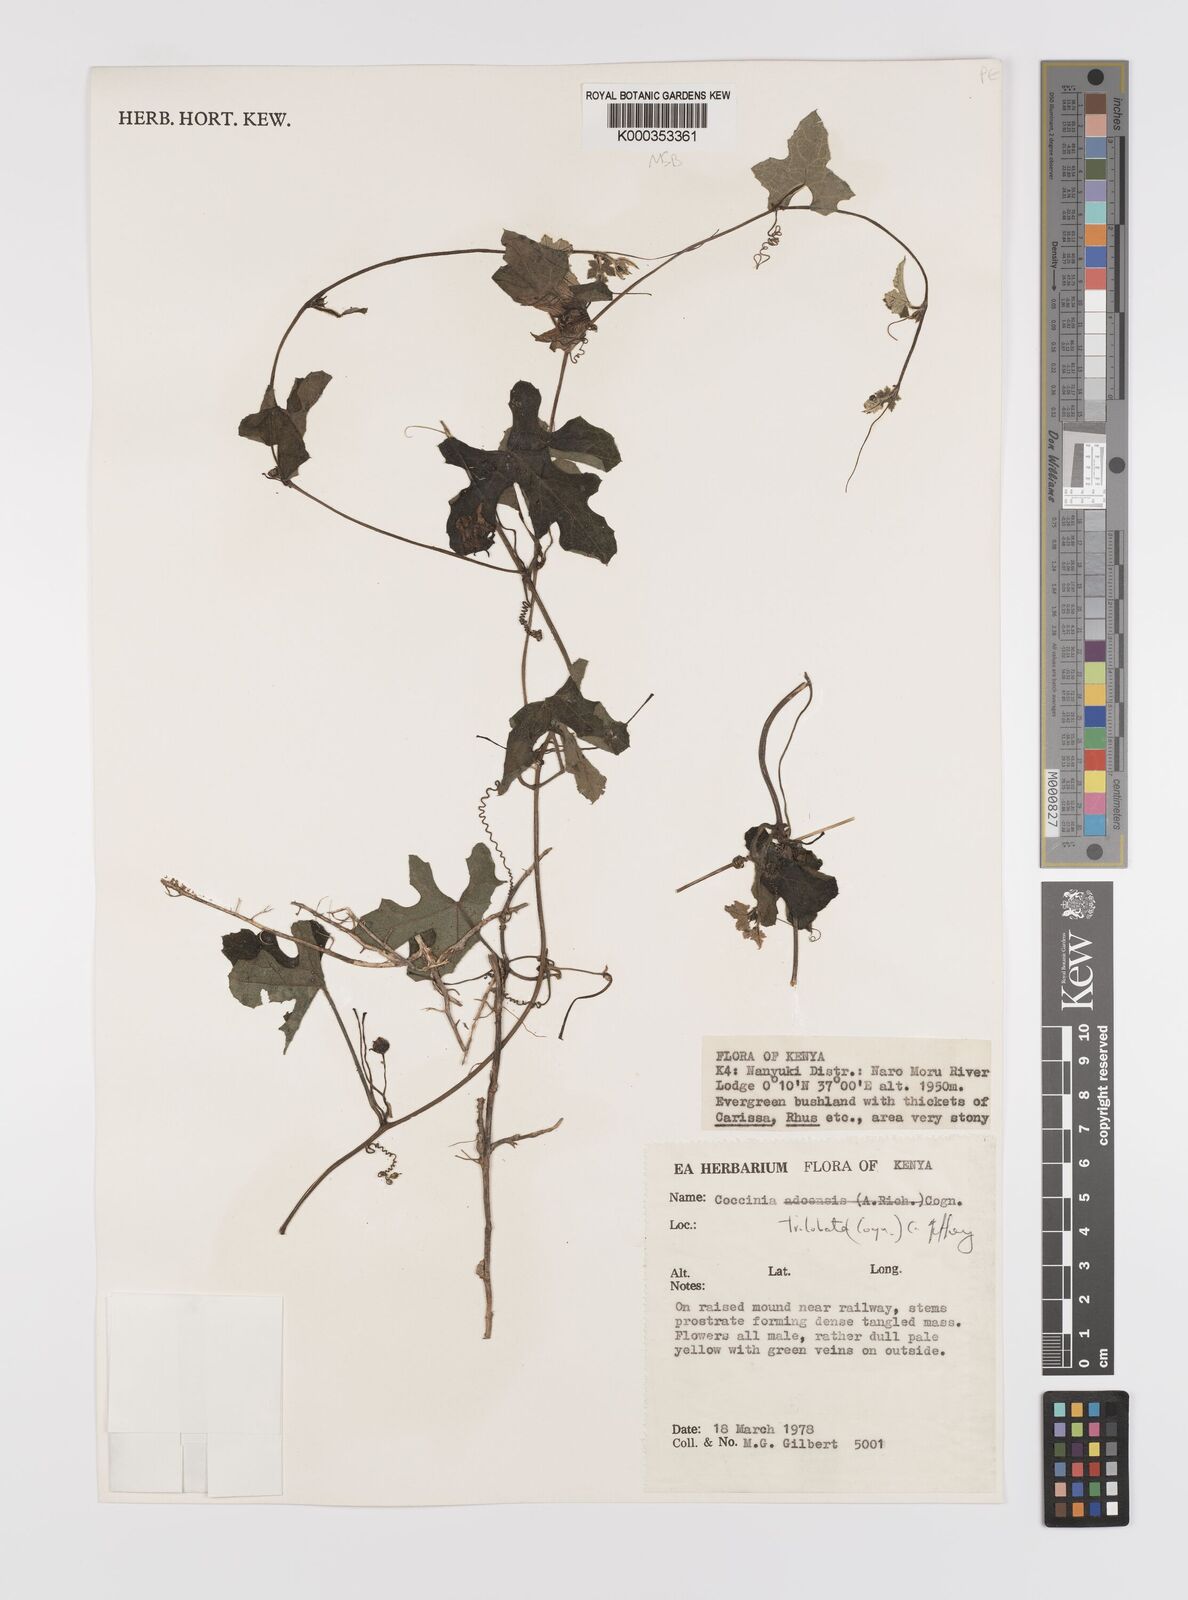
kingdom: Plantae
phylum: Tracheophyta
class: Magnoliopsida
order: Cucurbitales
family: Cucurbitaceae
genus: Coccinia
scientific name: Coccinia trilobata
